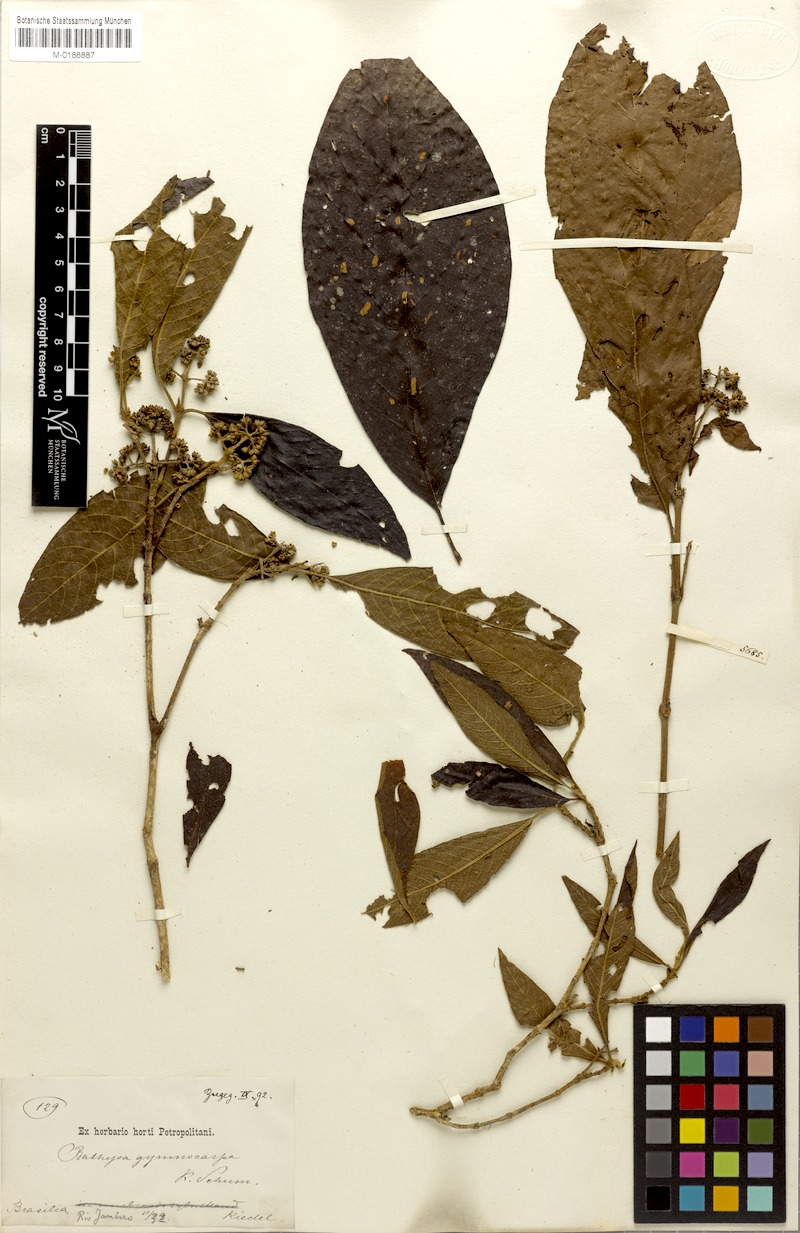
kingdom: Plantae
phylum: Tracheophyta
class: Magnoliopsida
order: Gentianales
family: Rubiaceae
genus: Bathysa
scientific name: Bathysa gymnocarpa
